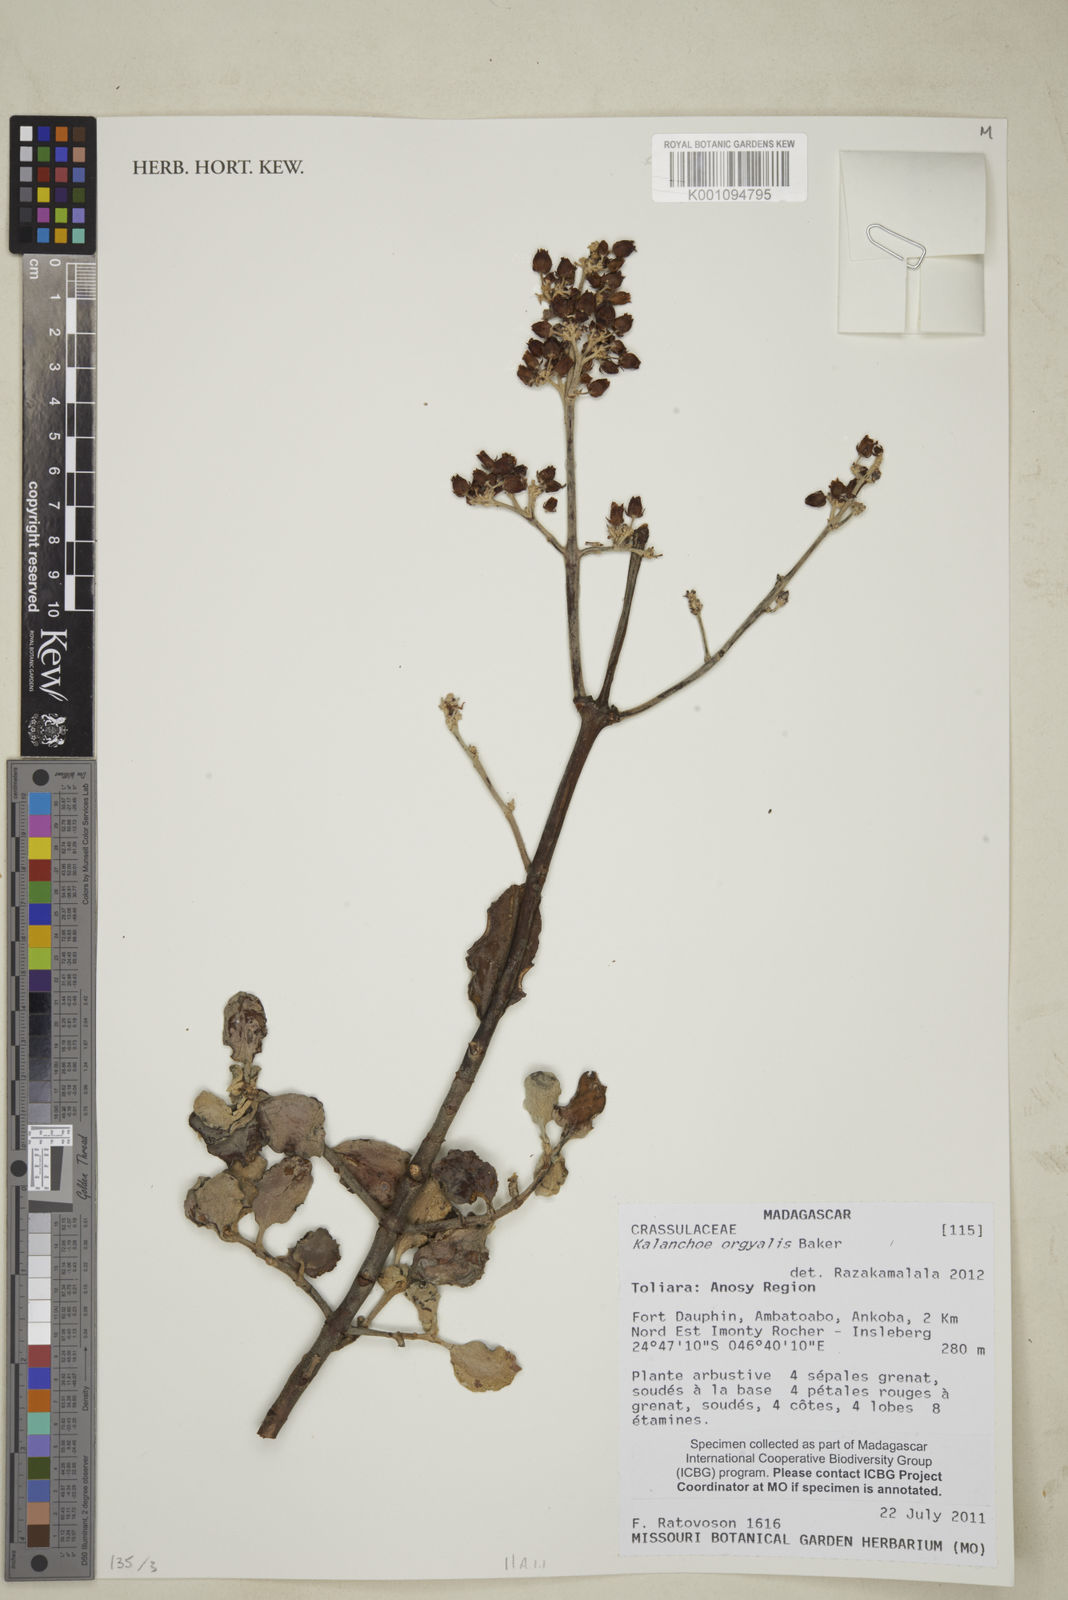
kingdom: Plantae
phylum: Tracheophyta
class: Magnoliopsida
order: Saxifragales
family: Crassulaceae
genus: Kalanchoe
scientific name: Kalanchoe
